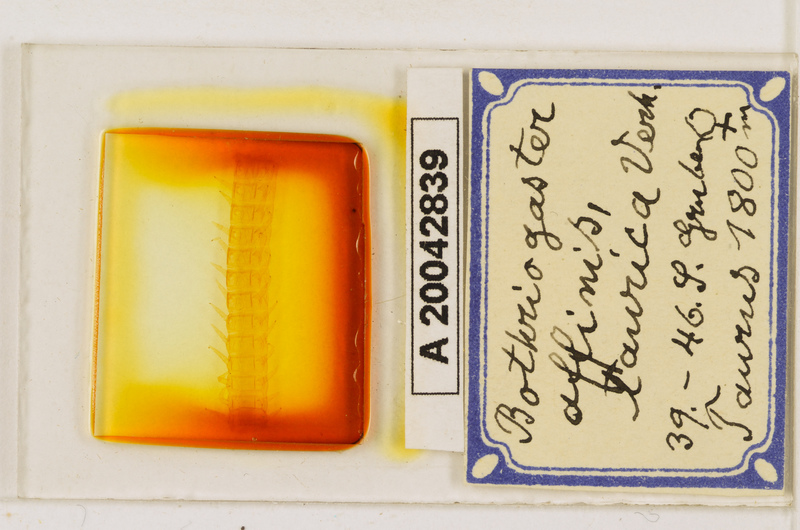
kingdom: Animalia
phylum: Arthropoda
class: Chilopoda
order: Geophilomorpha
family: Himantariidae
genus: Bothriogaster
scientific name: Bothriogaster signata
